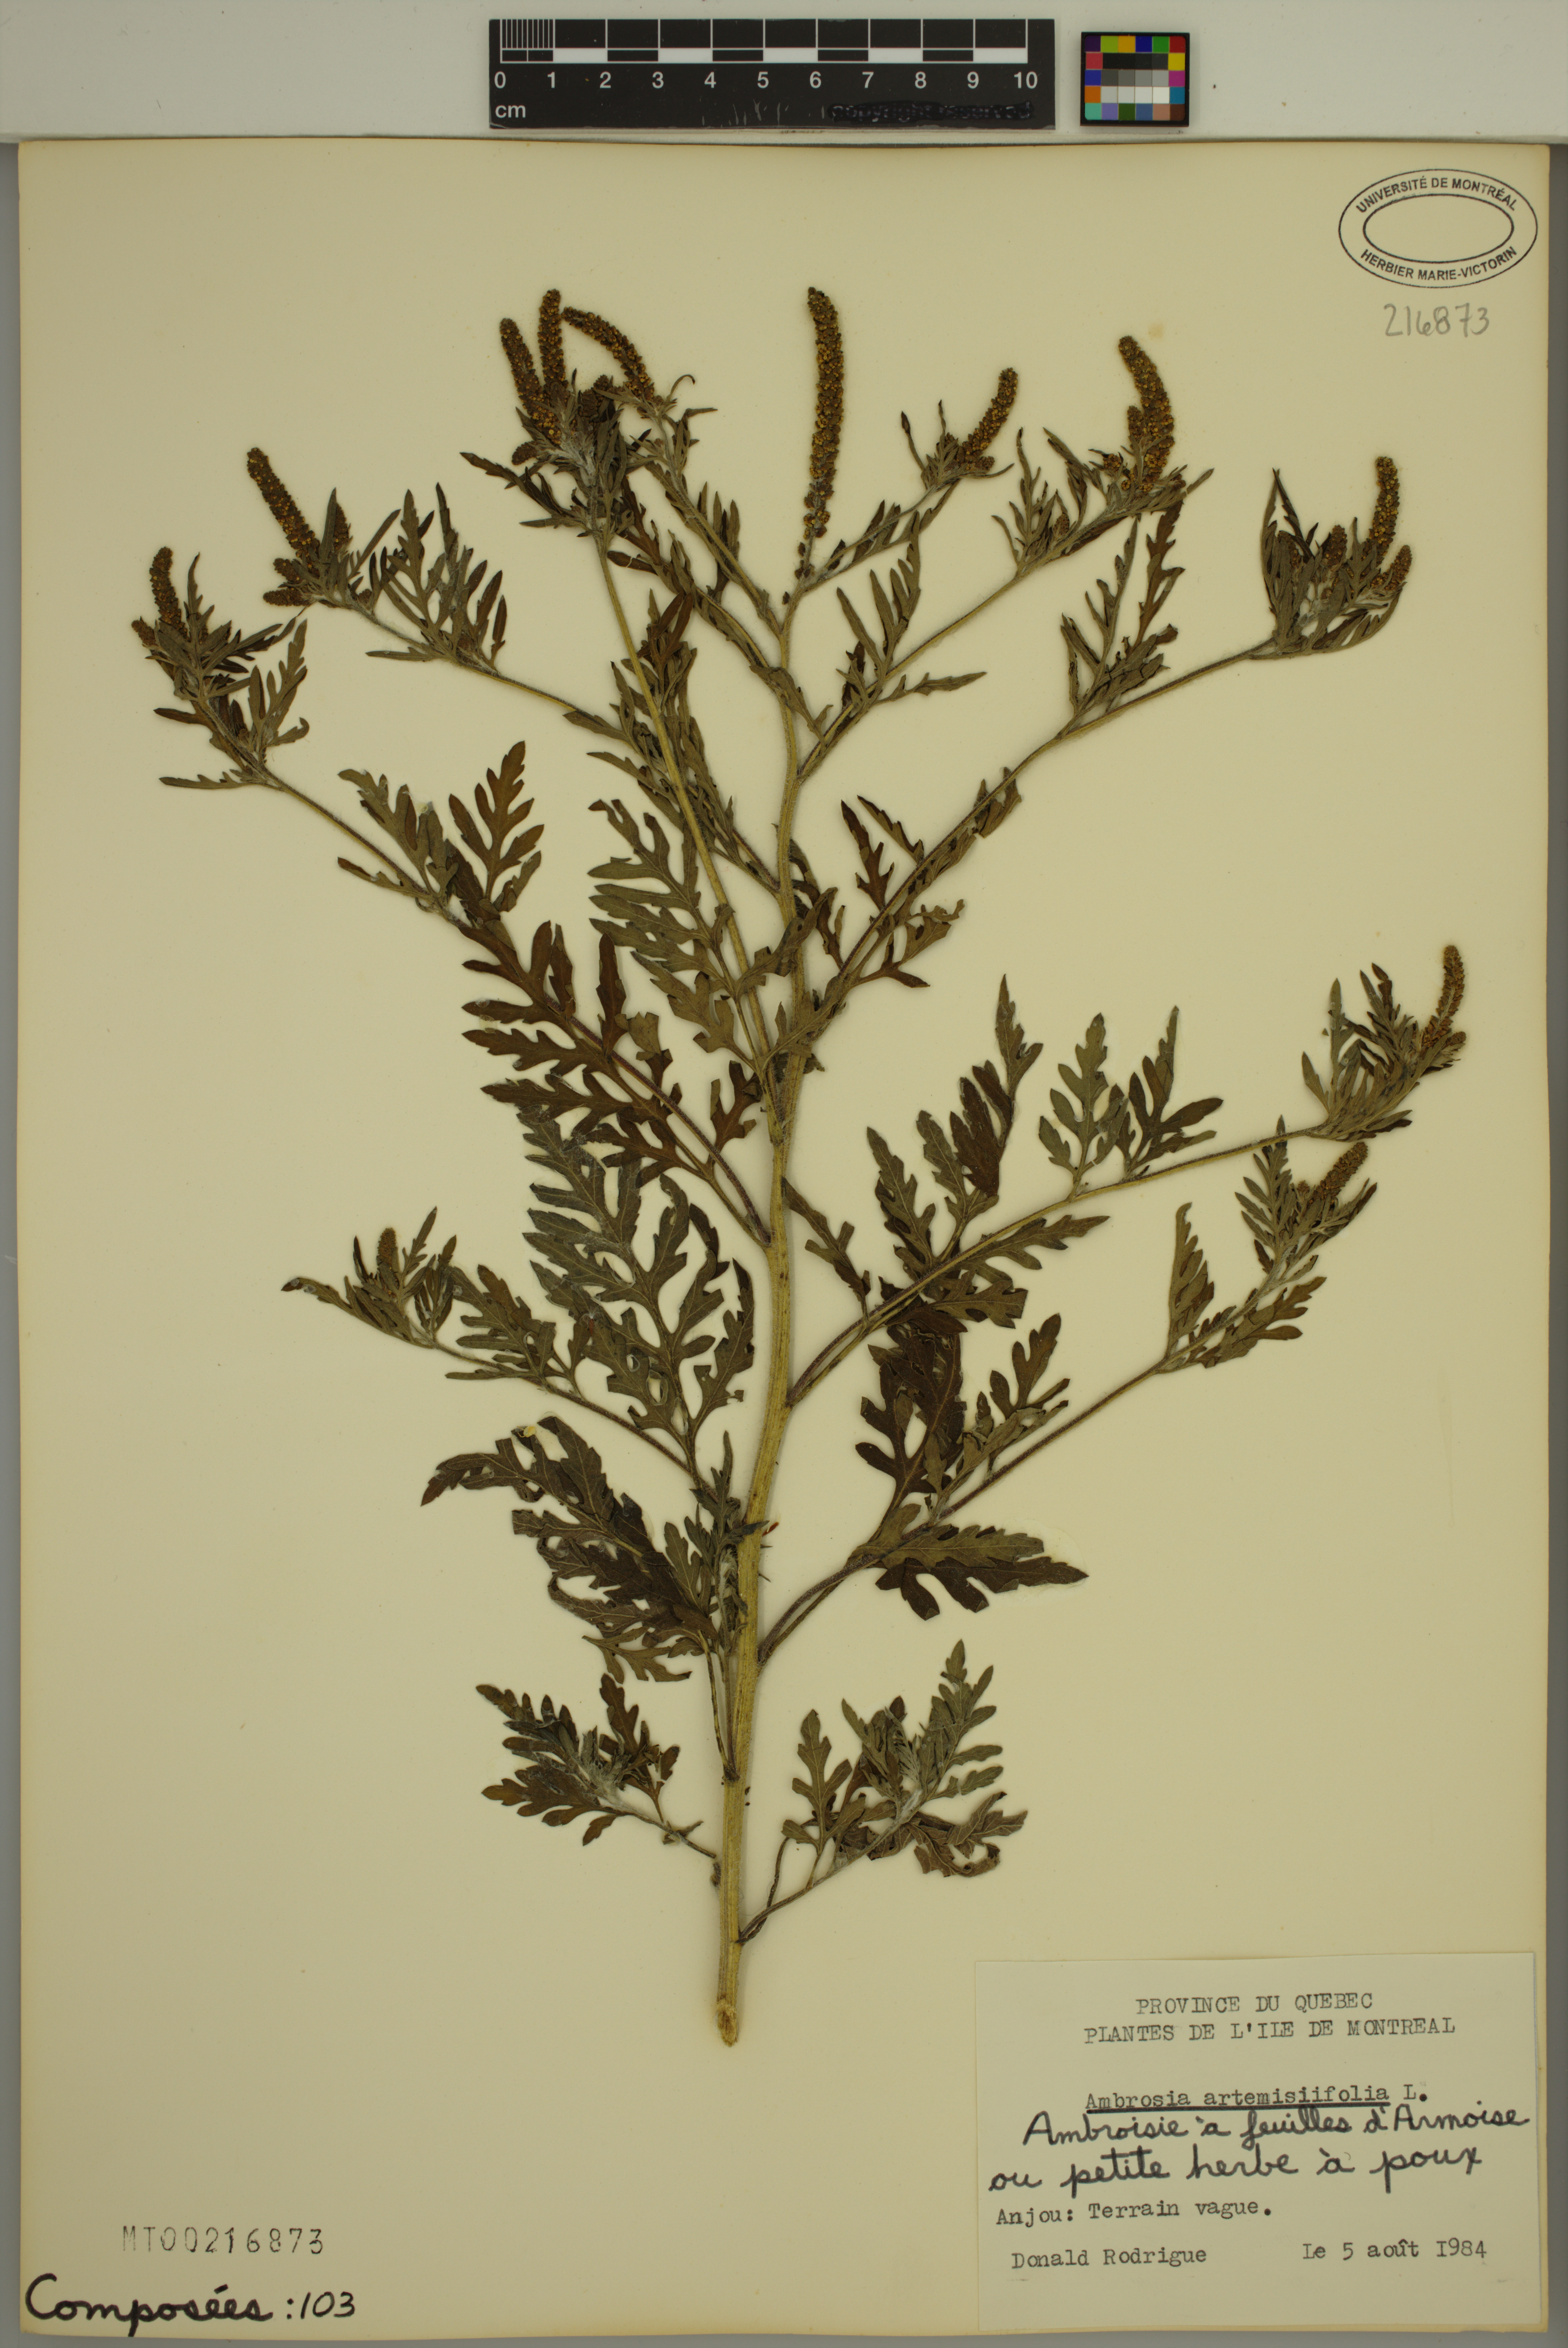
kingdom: Plantae
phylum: Tracheophyta
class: Magnoliopsida
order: Asterales
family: Asteraceae
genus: Ambrosia
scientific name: Ambrosia artemisiifolia
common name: Annual ragweed
